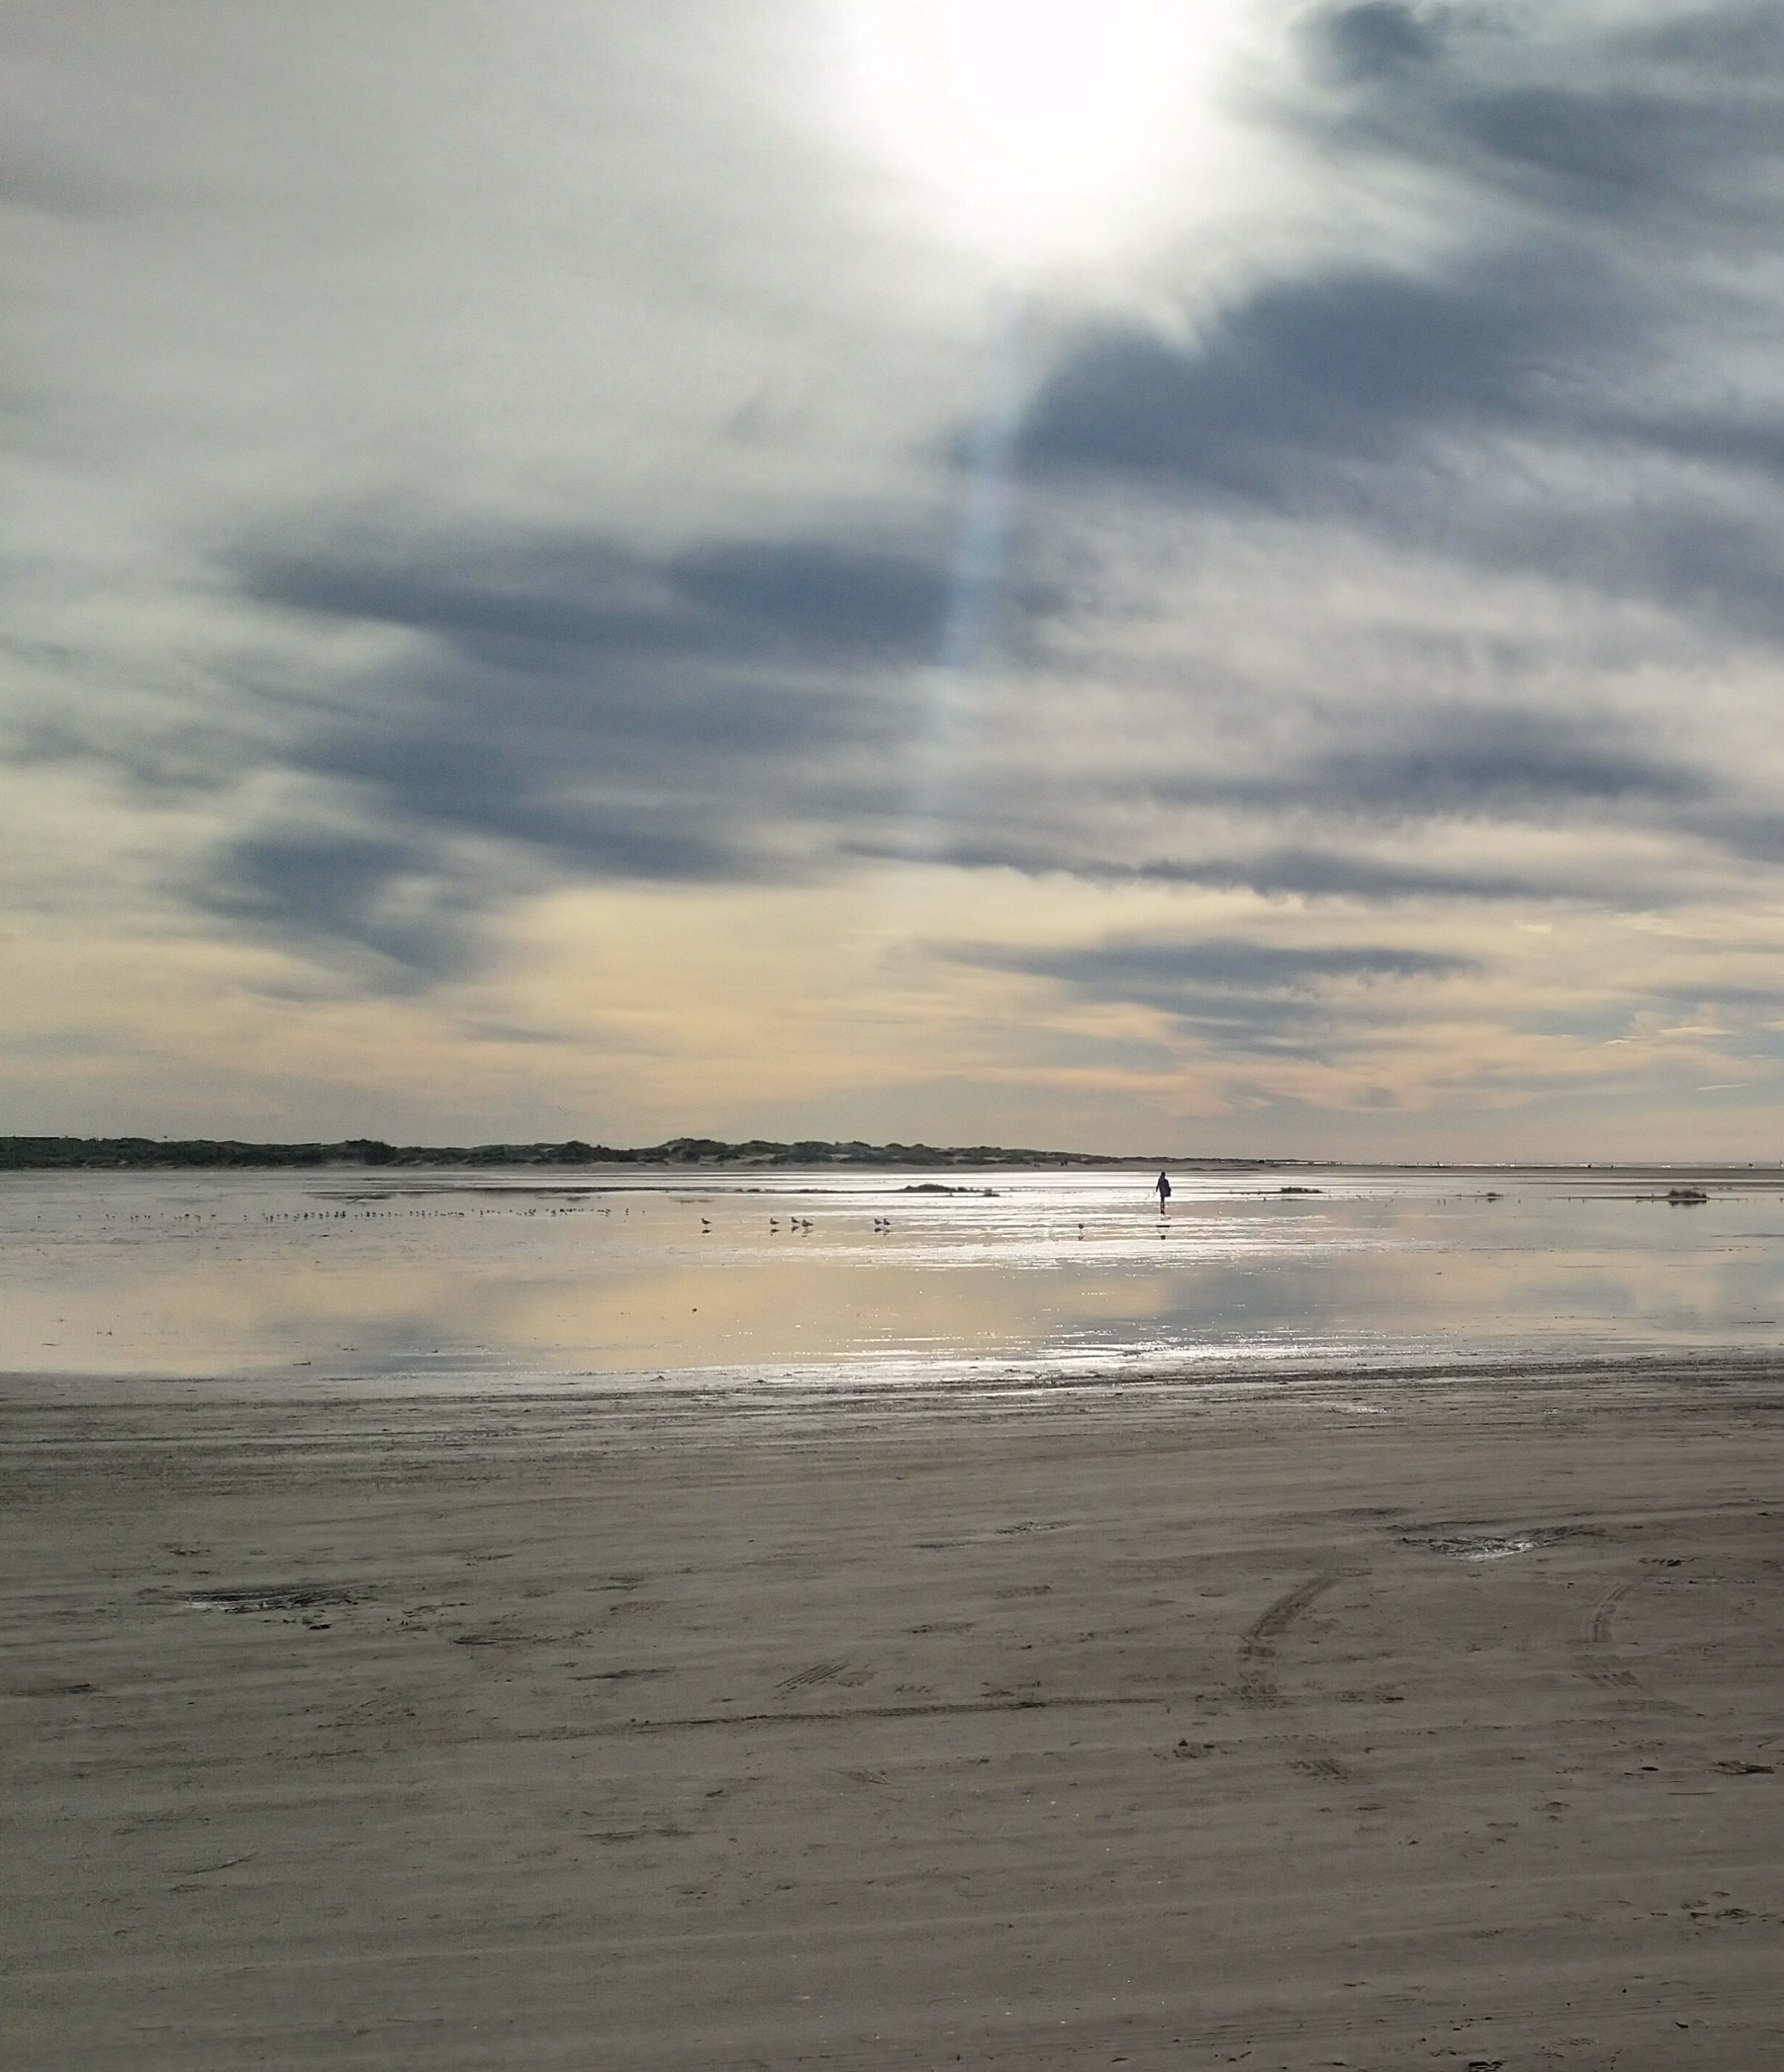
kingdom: Animalia
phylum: Chordata
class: Aves
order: Charadriiformes
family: Scolopacidae
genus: Calidris
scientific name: Calidris alba
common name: Sandløber
